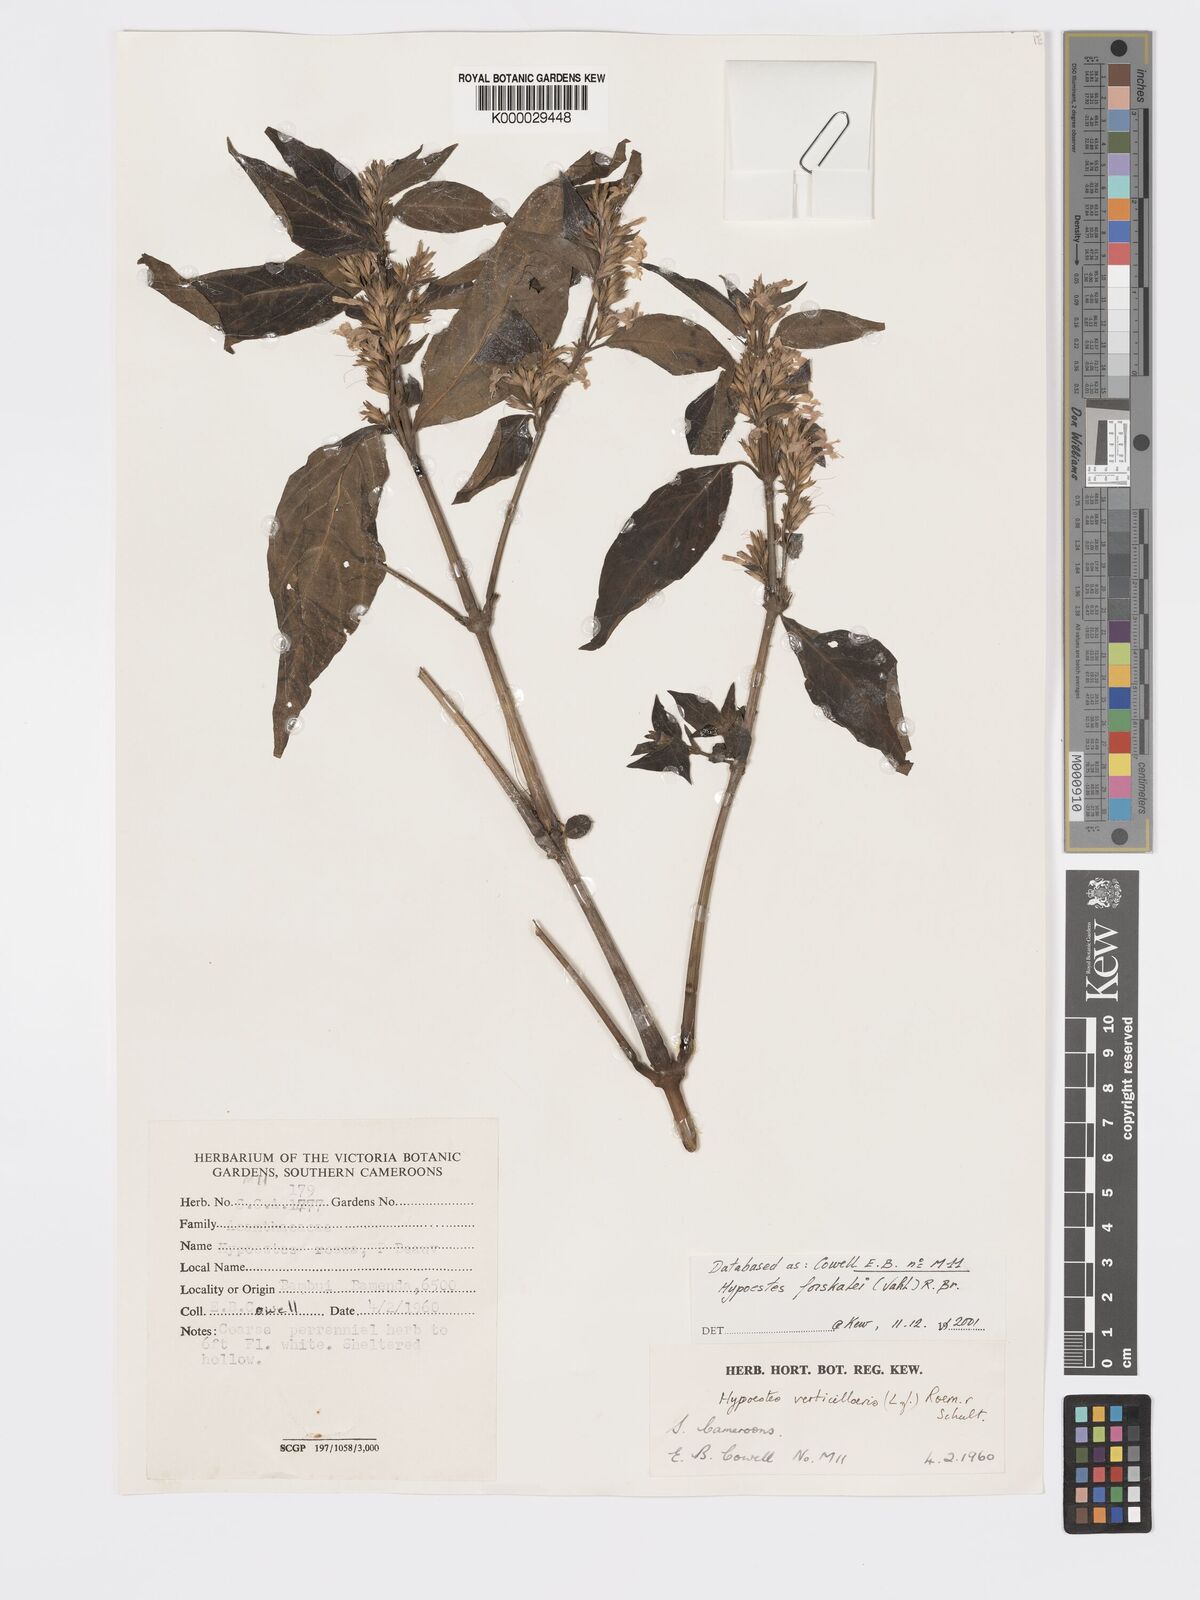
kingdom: Plantae
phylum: Tracheophyta
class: Magnoliopsida
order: Lamiales
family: Acanthaceae
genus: Hypoestes
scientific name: Hypoestes
